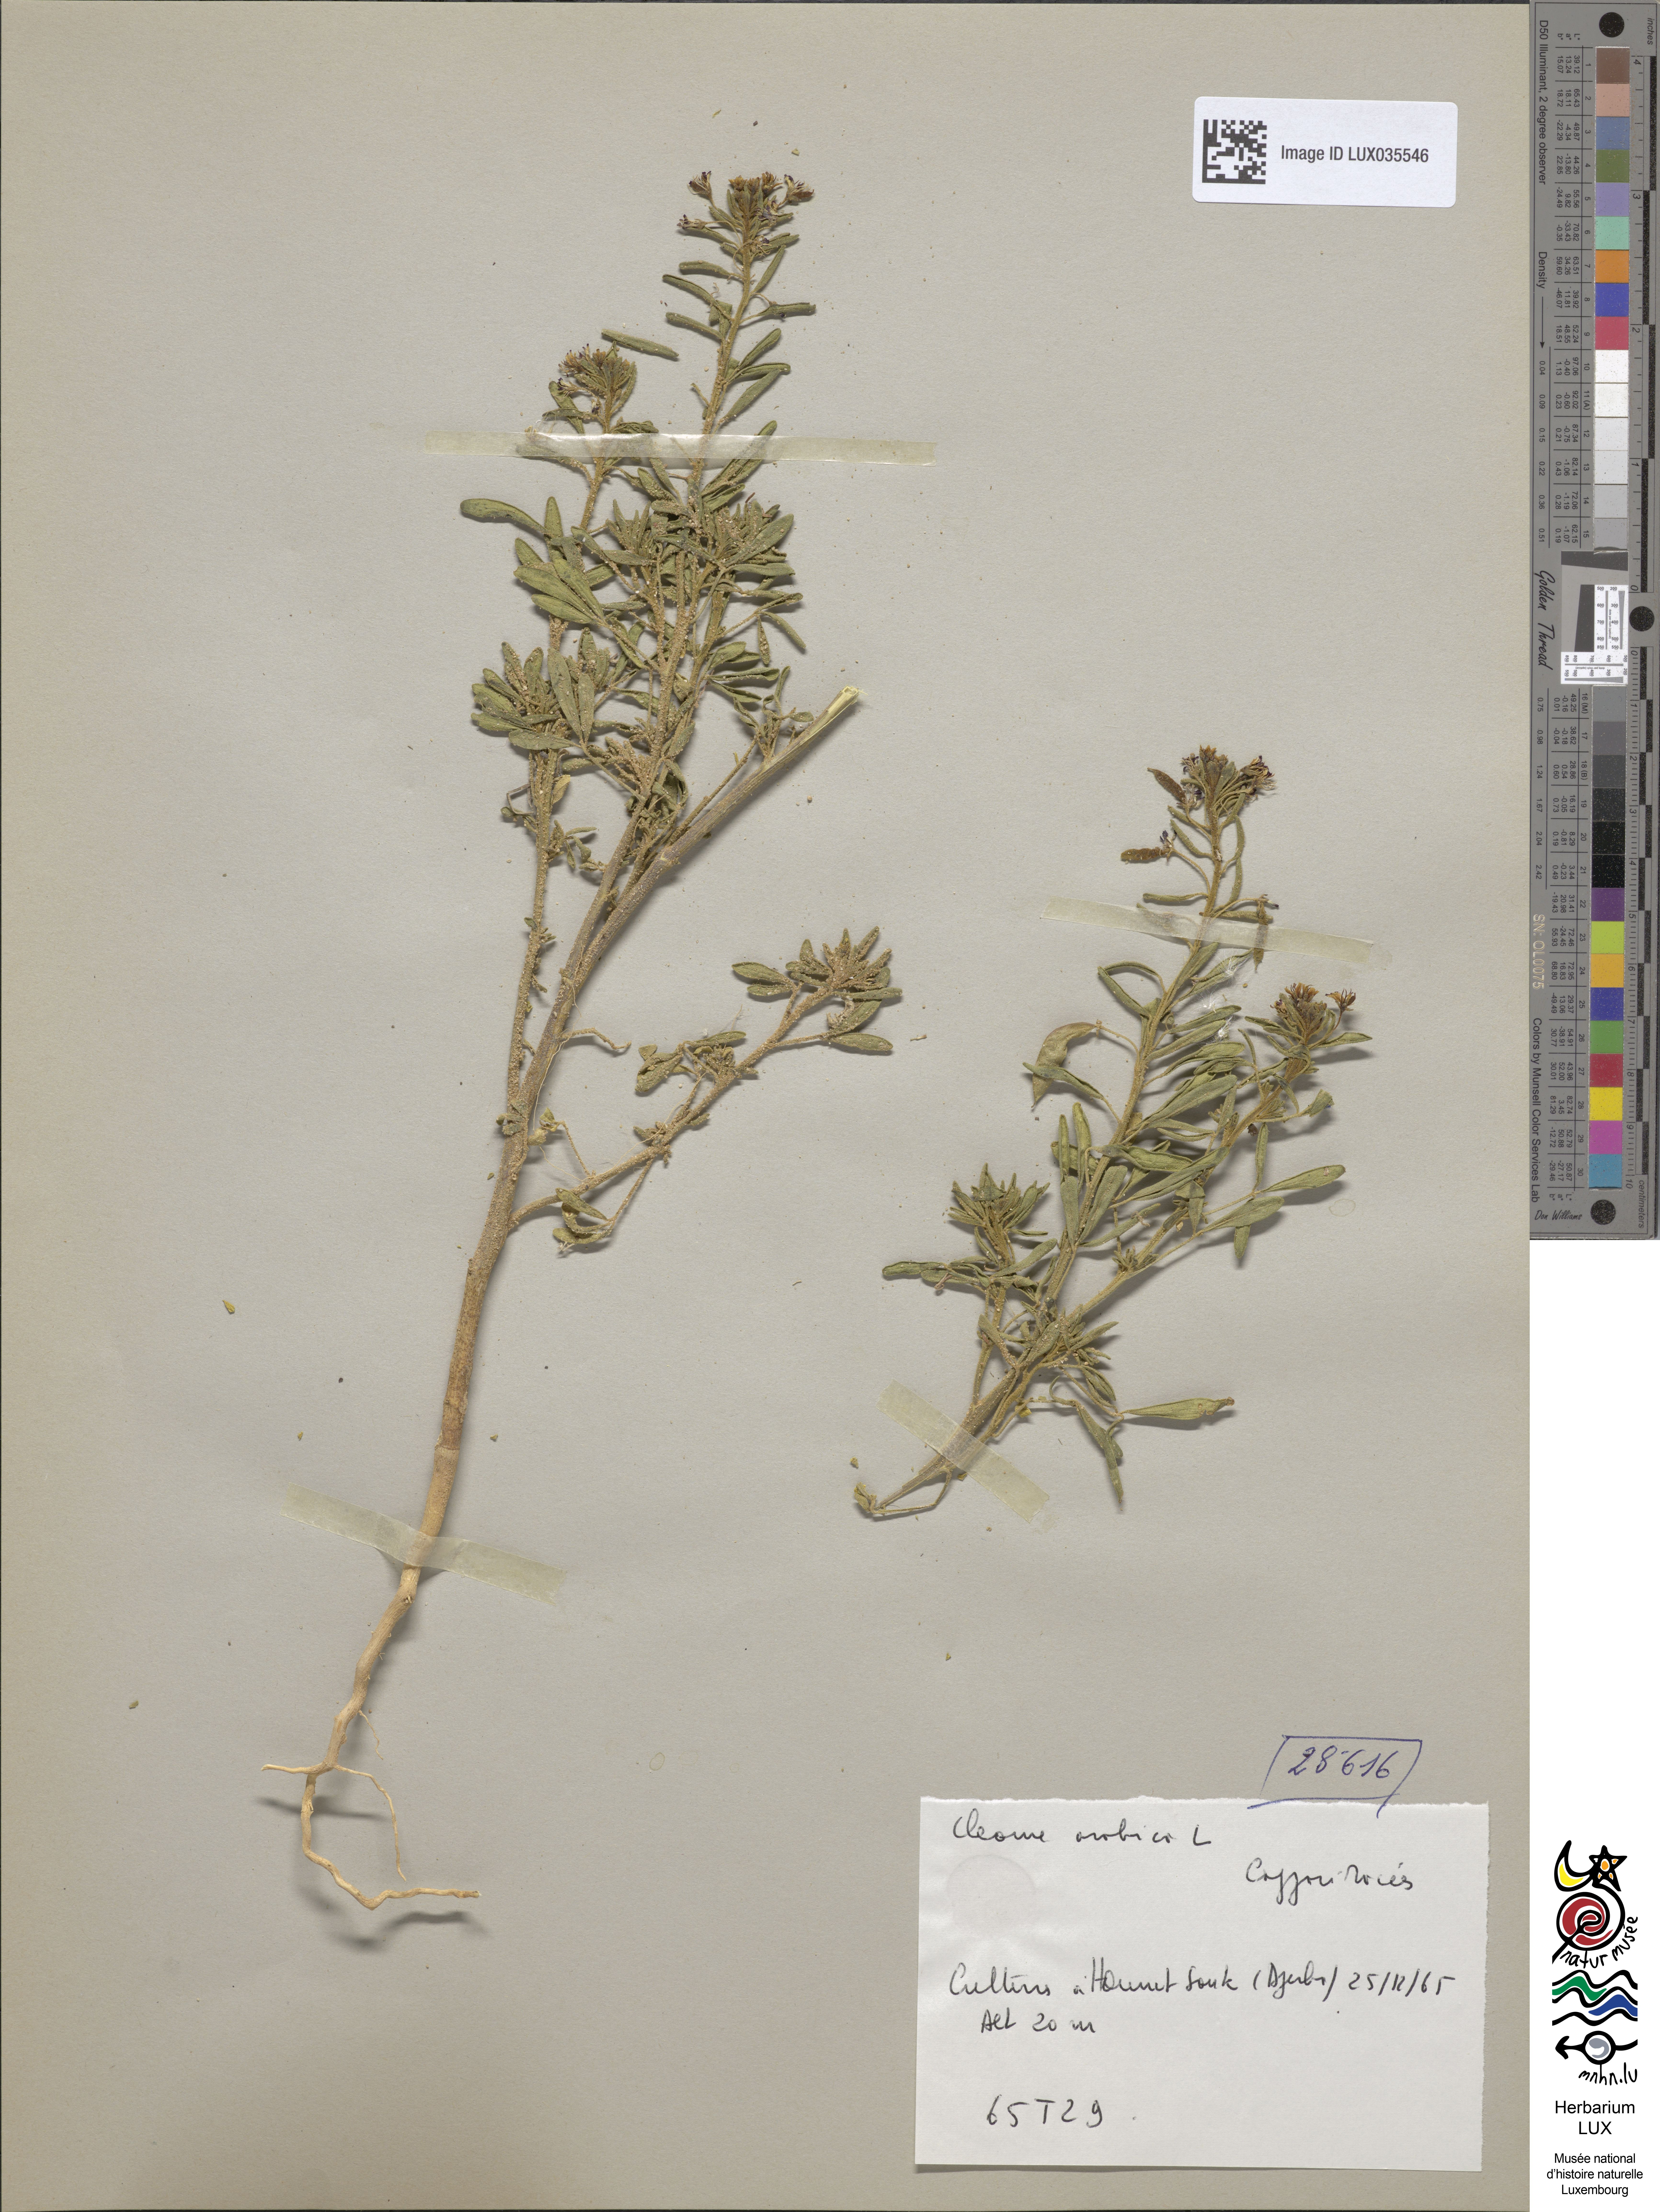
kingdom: Plantae
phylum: Tracheophyta
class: Magnoliopsida
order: Brassicales
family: Cleomaceae
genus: Cleome
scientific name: Cleome arabica
